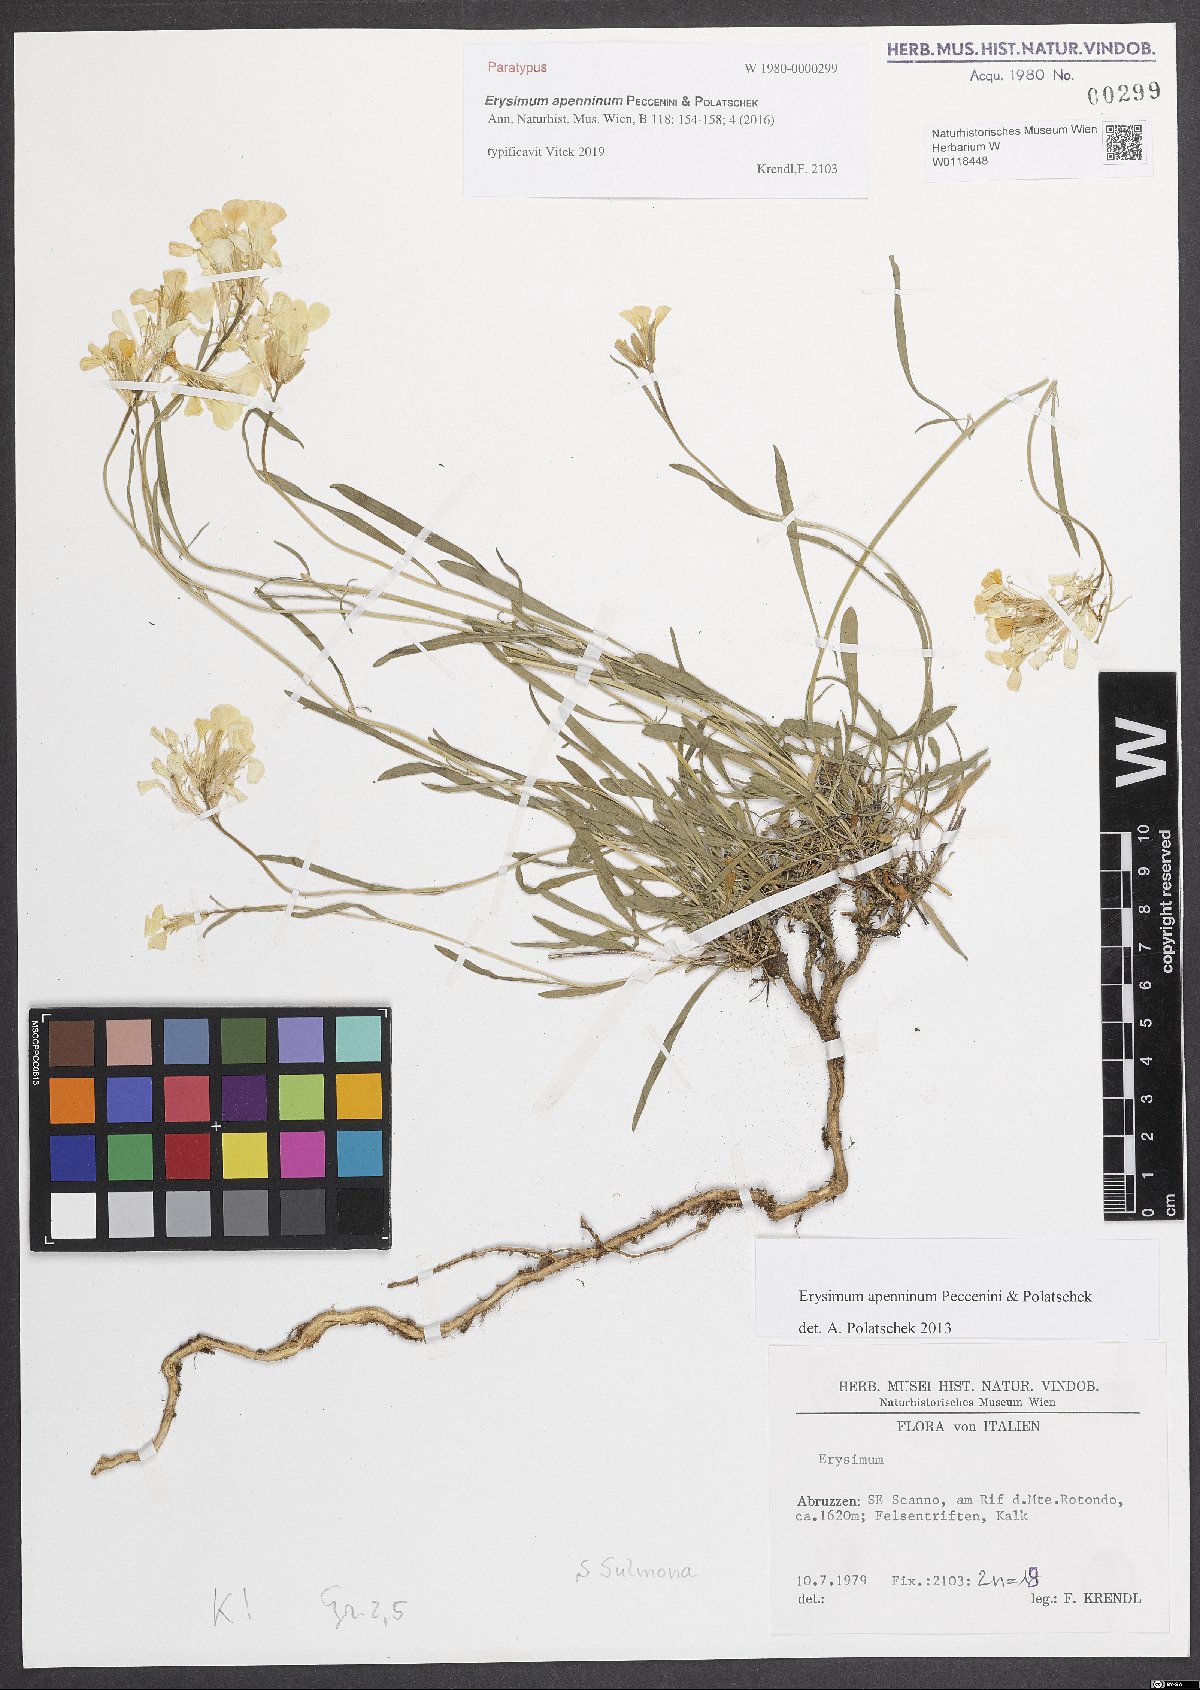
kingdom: Plantae
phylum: Tracheophyta
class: Magnoliopsida
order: Brassicales
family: Brassicaceae
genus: Erysimum
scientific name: Erysimum apenninum
